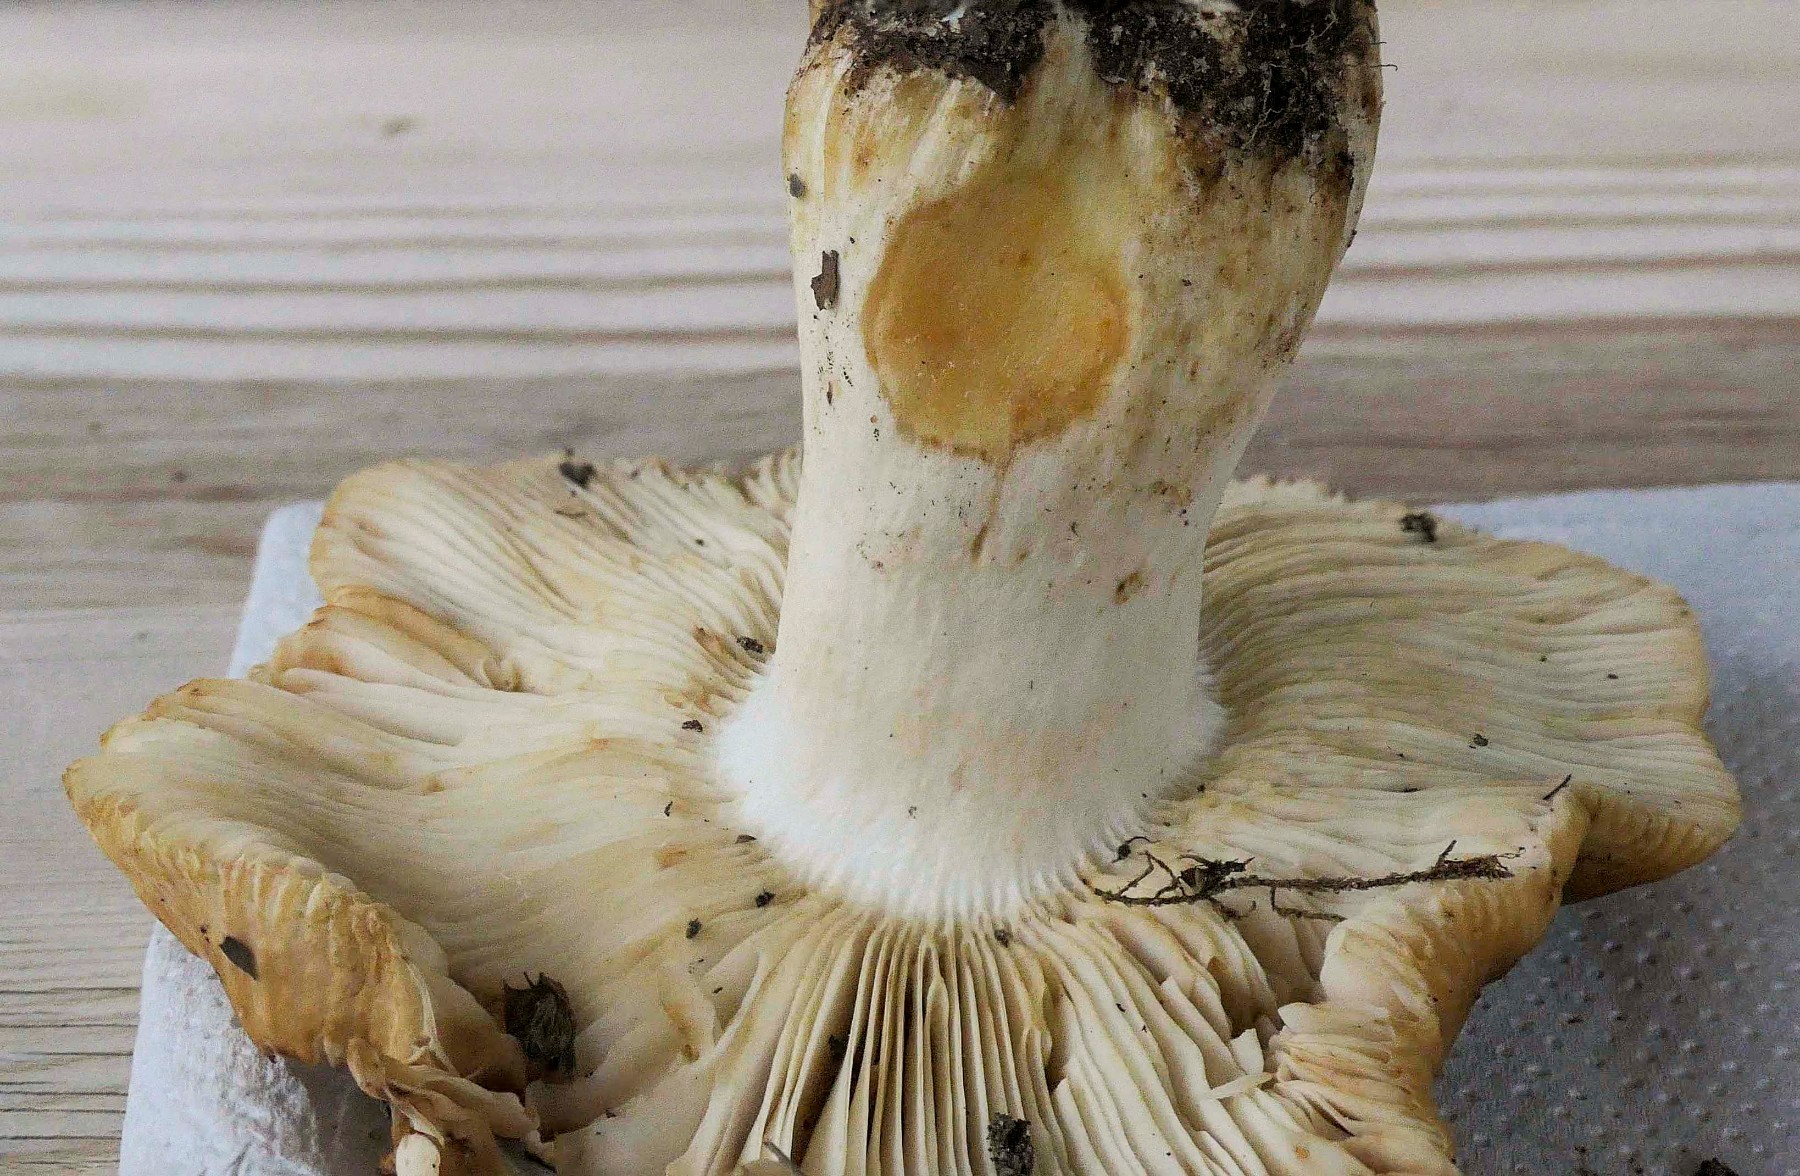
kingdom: Fungi
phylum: Basidiomycota
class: Agaricomycetes
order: Russulales
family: Russulaceae
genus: Russula
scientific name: Russula subfoetens
